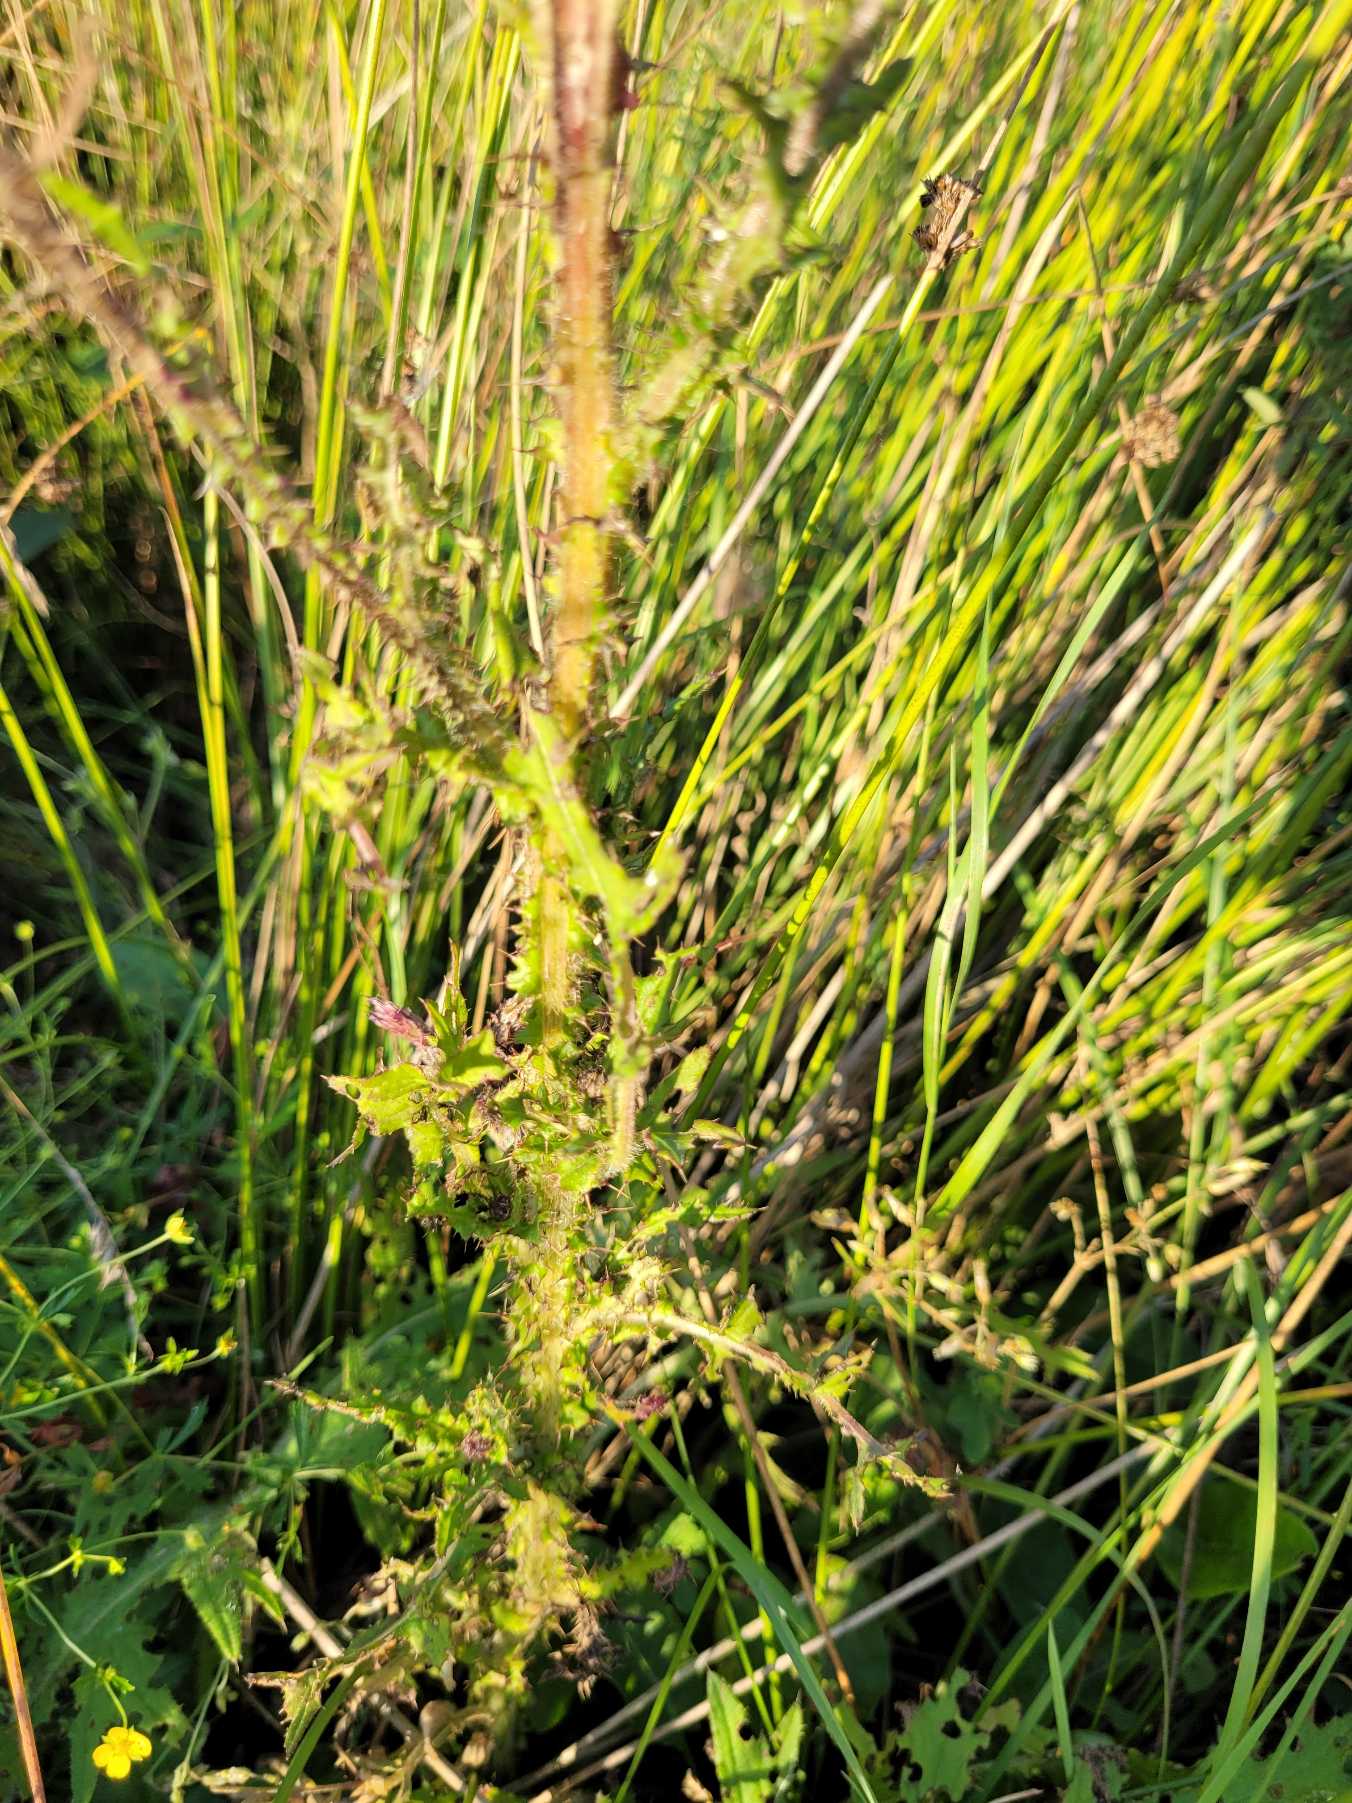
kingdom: Plantae
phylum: Tracheophyta
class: Magnoliopsida
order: Asterales
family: Asteraceae
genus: Cirsium
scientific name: Cirsium palustre
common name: Kær-tidsel
